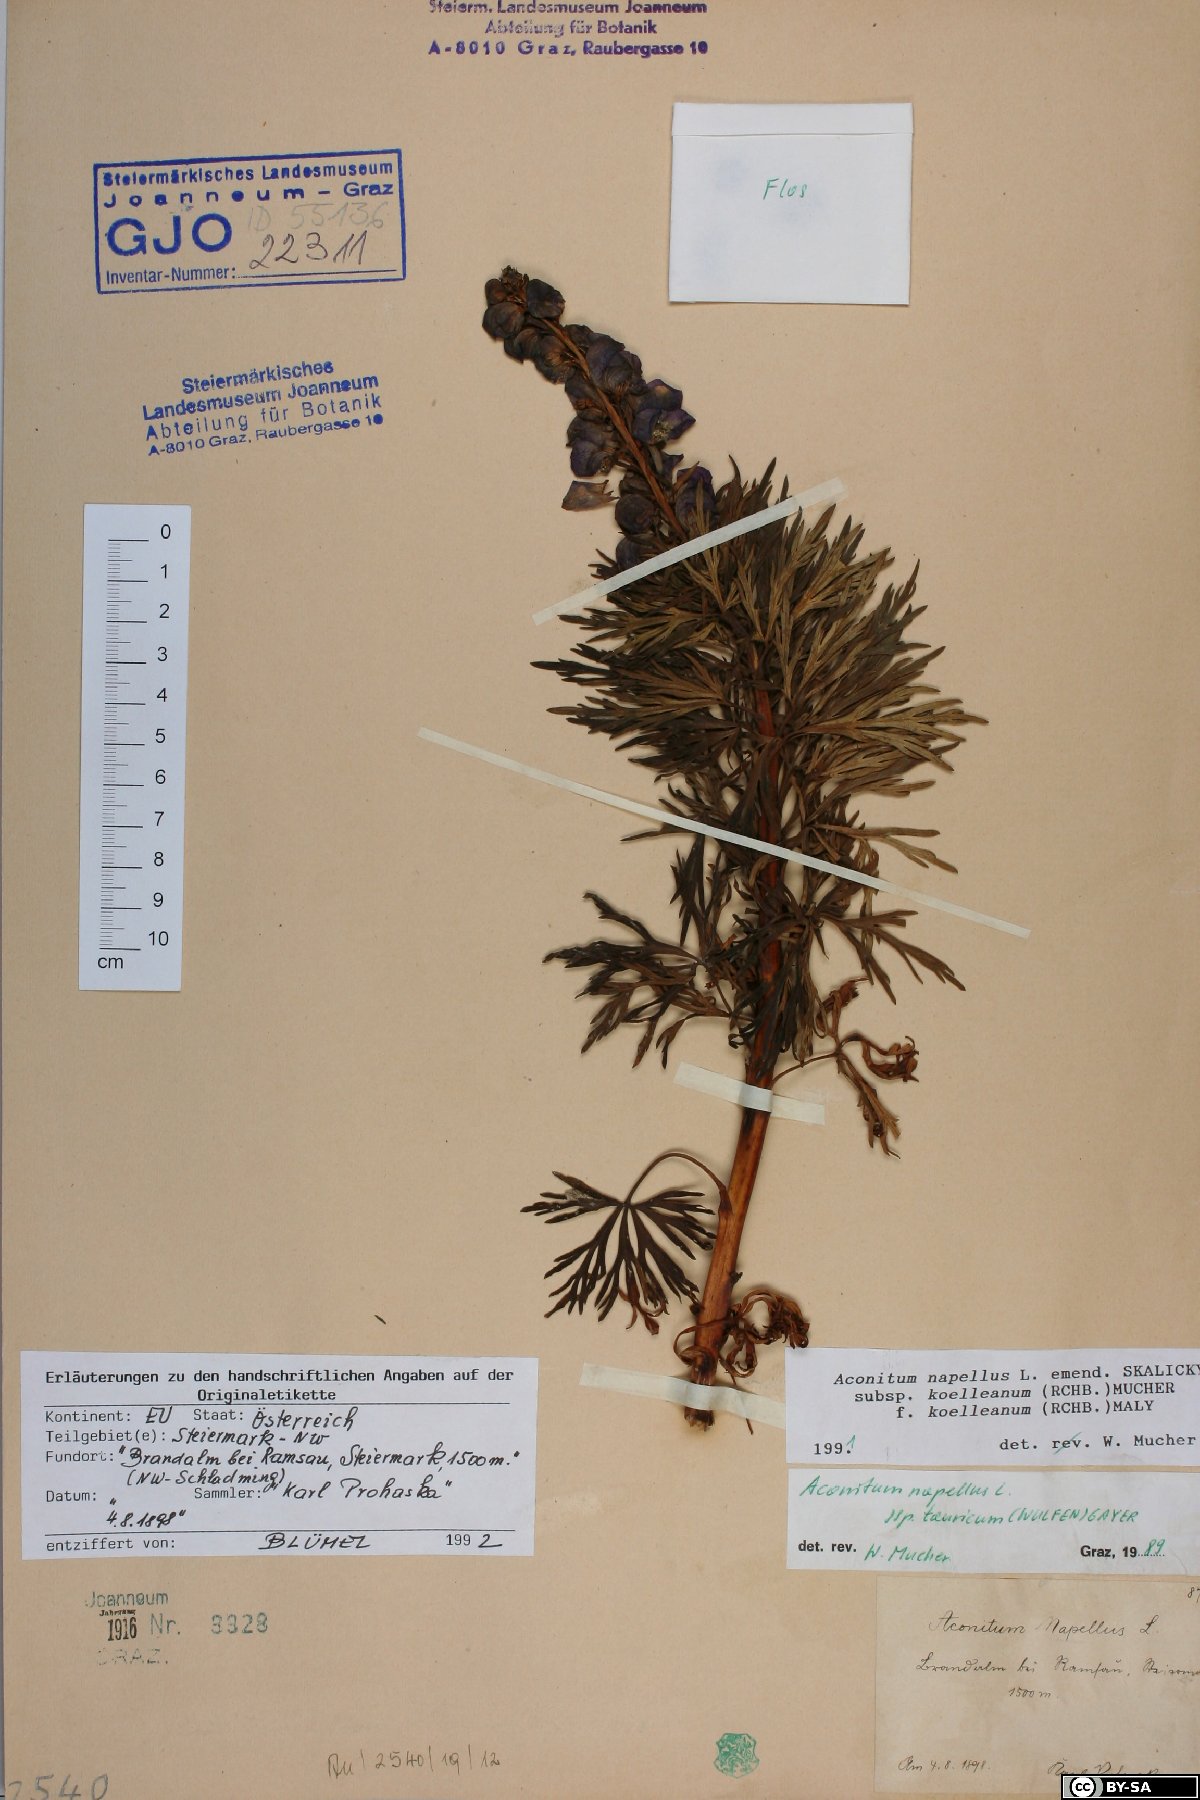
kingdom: Plantae
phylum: Tracheophyta
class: Magnoliopsida
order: Ranunculales
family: Ranunculaceae
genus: Aconitum
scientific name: Aconitum tauricum
